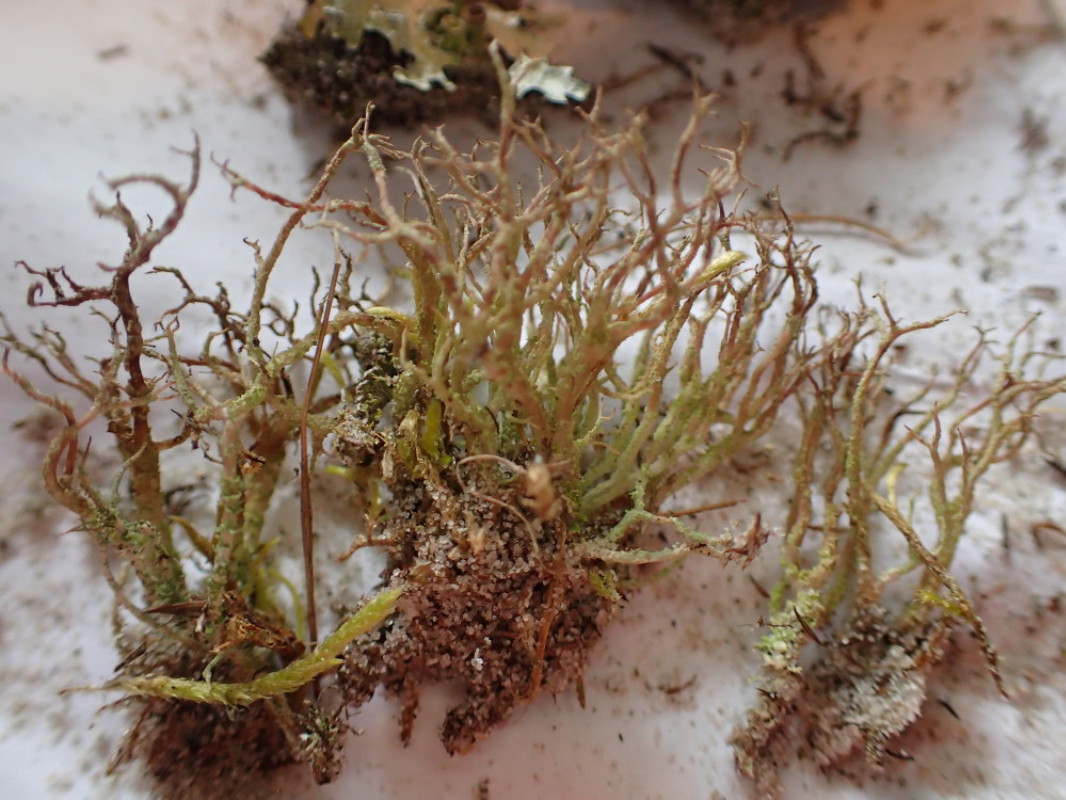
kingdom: Fungi
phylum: Ascomycota
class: Lecanoromycetes
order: Lecanorales
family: Cladoniaceae
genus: Cladonia
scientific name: Cladonia scabriuscula
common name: ru bægerlav
